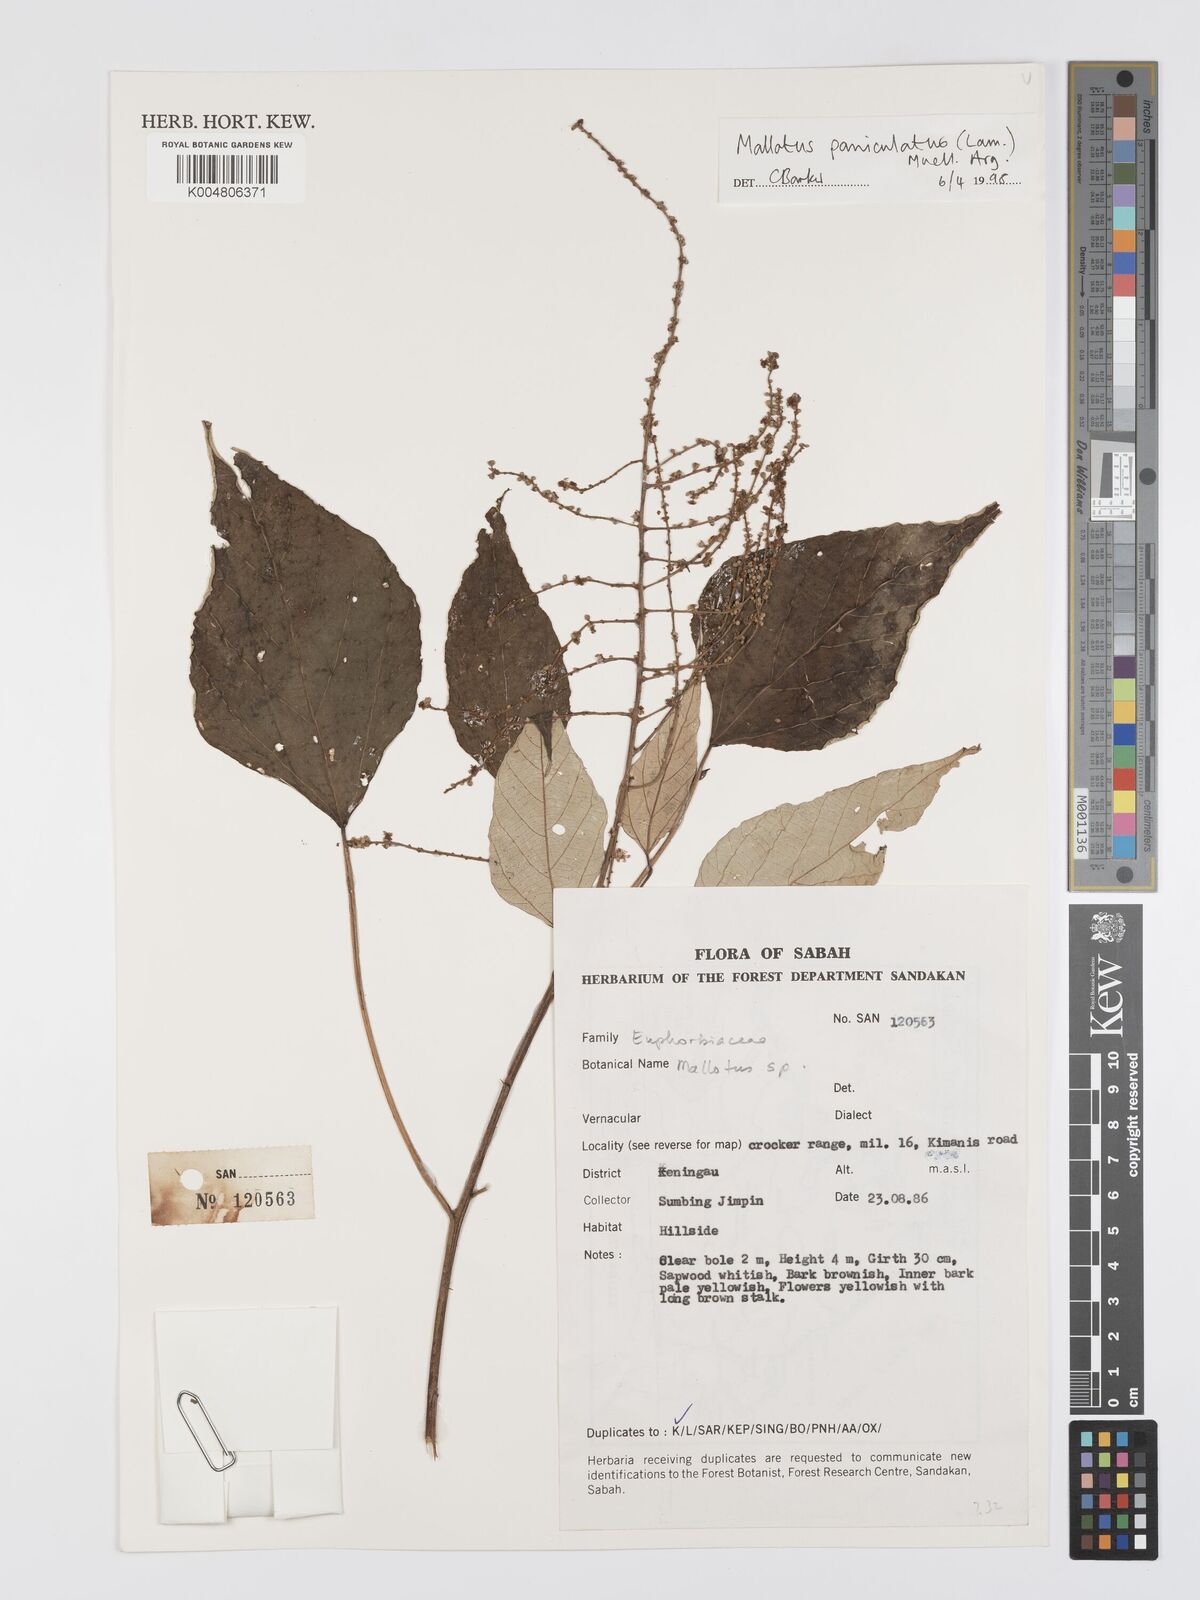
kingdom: Plantae
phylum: Tracheophyta
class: Magnoliopsida
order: Malpighiales
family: Euphorbiaceae
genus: Mallotus
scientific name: Mallotus paniculatus
